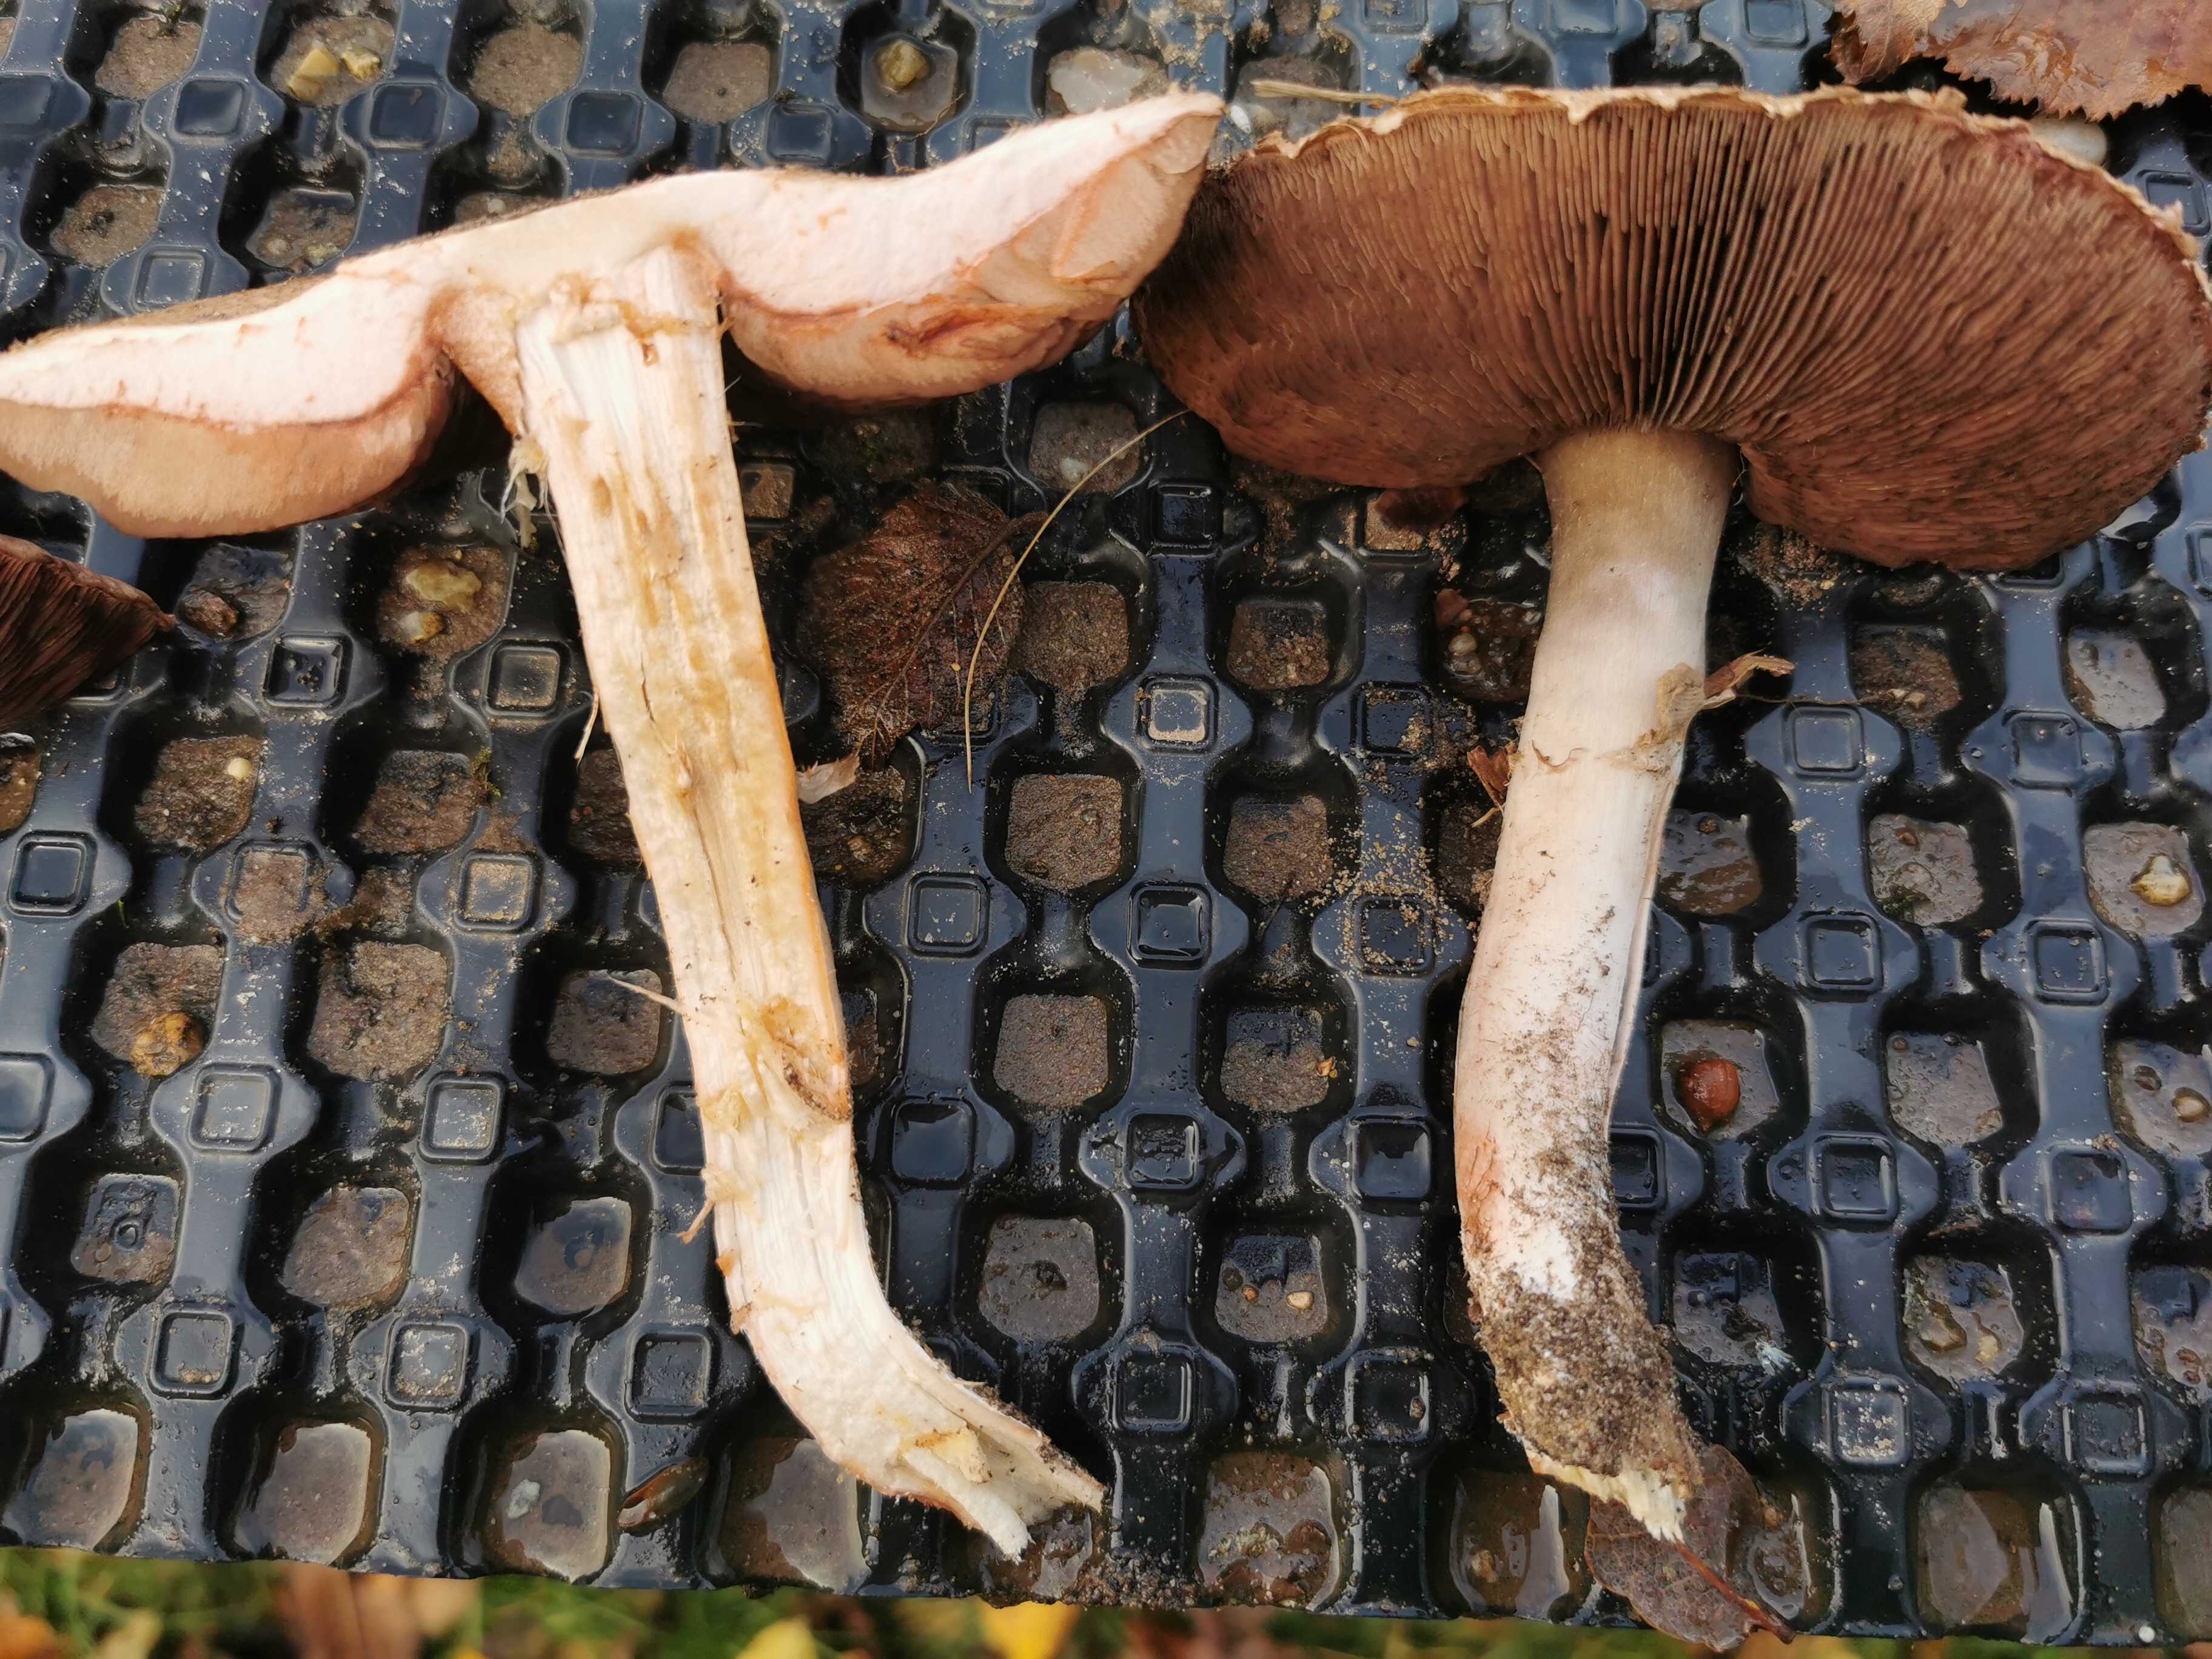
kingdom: Fungi
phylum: Basidiomycota
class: Agaricomycetes
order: Agaricales
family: Agaricaceae
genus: Agaricus
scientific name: Agaricus
